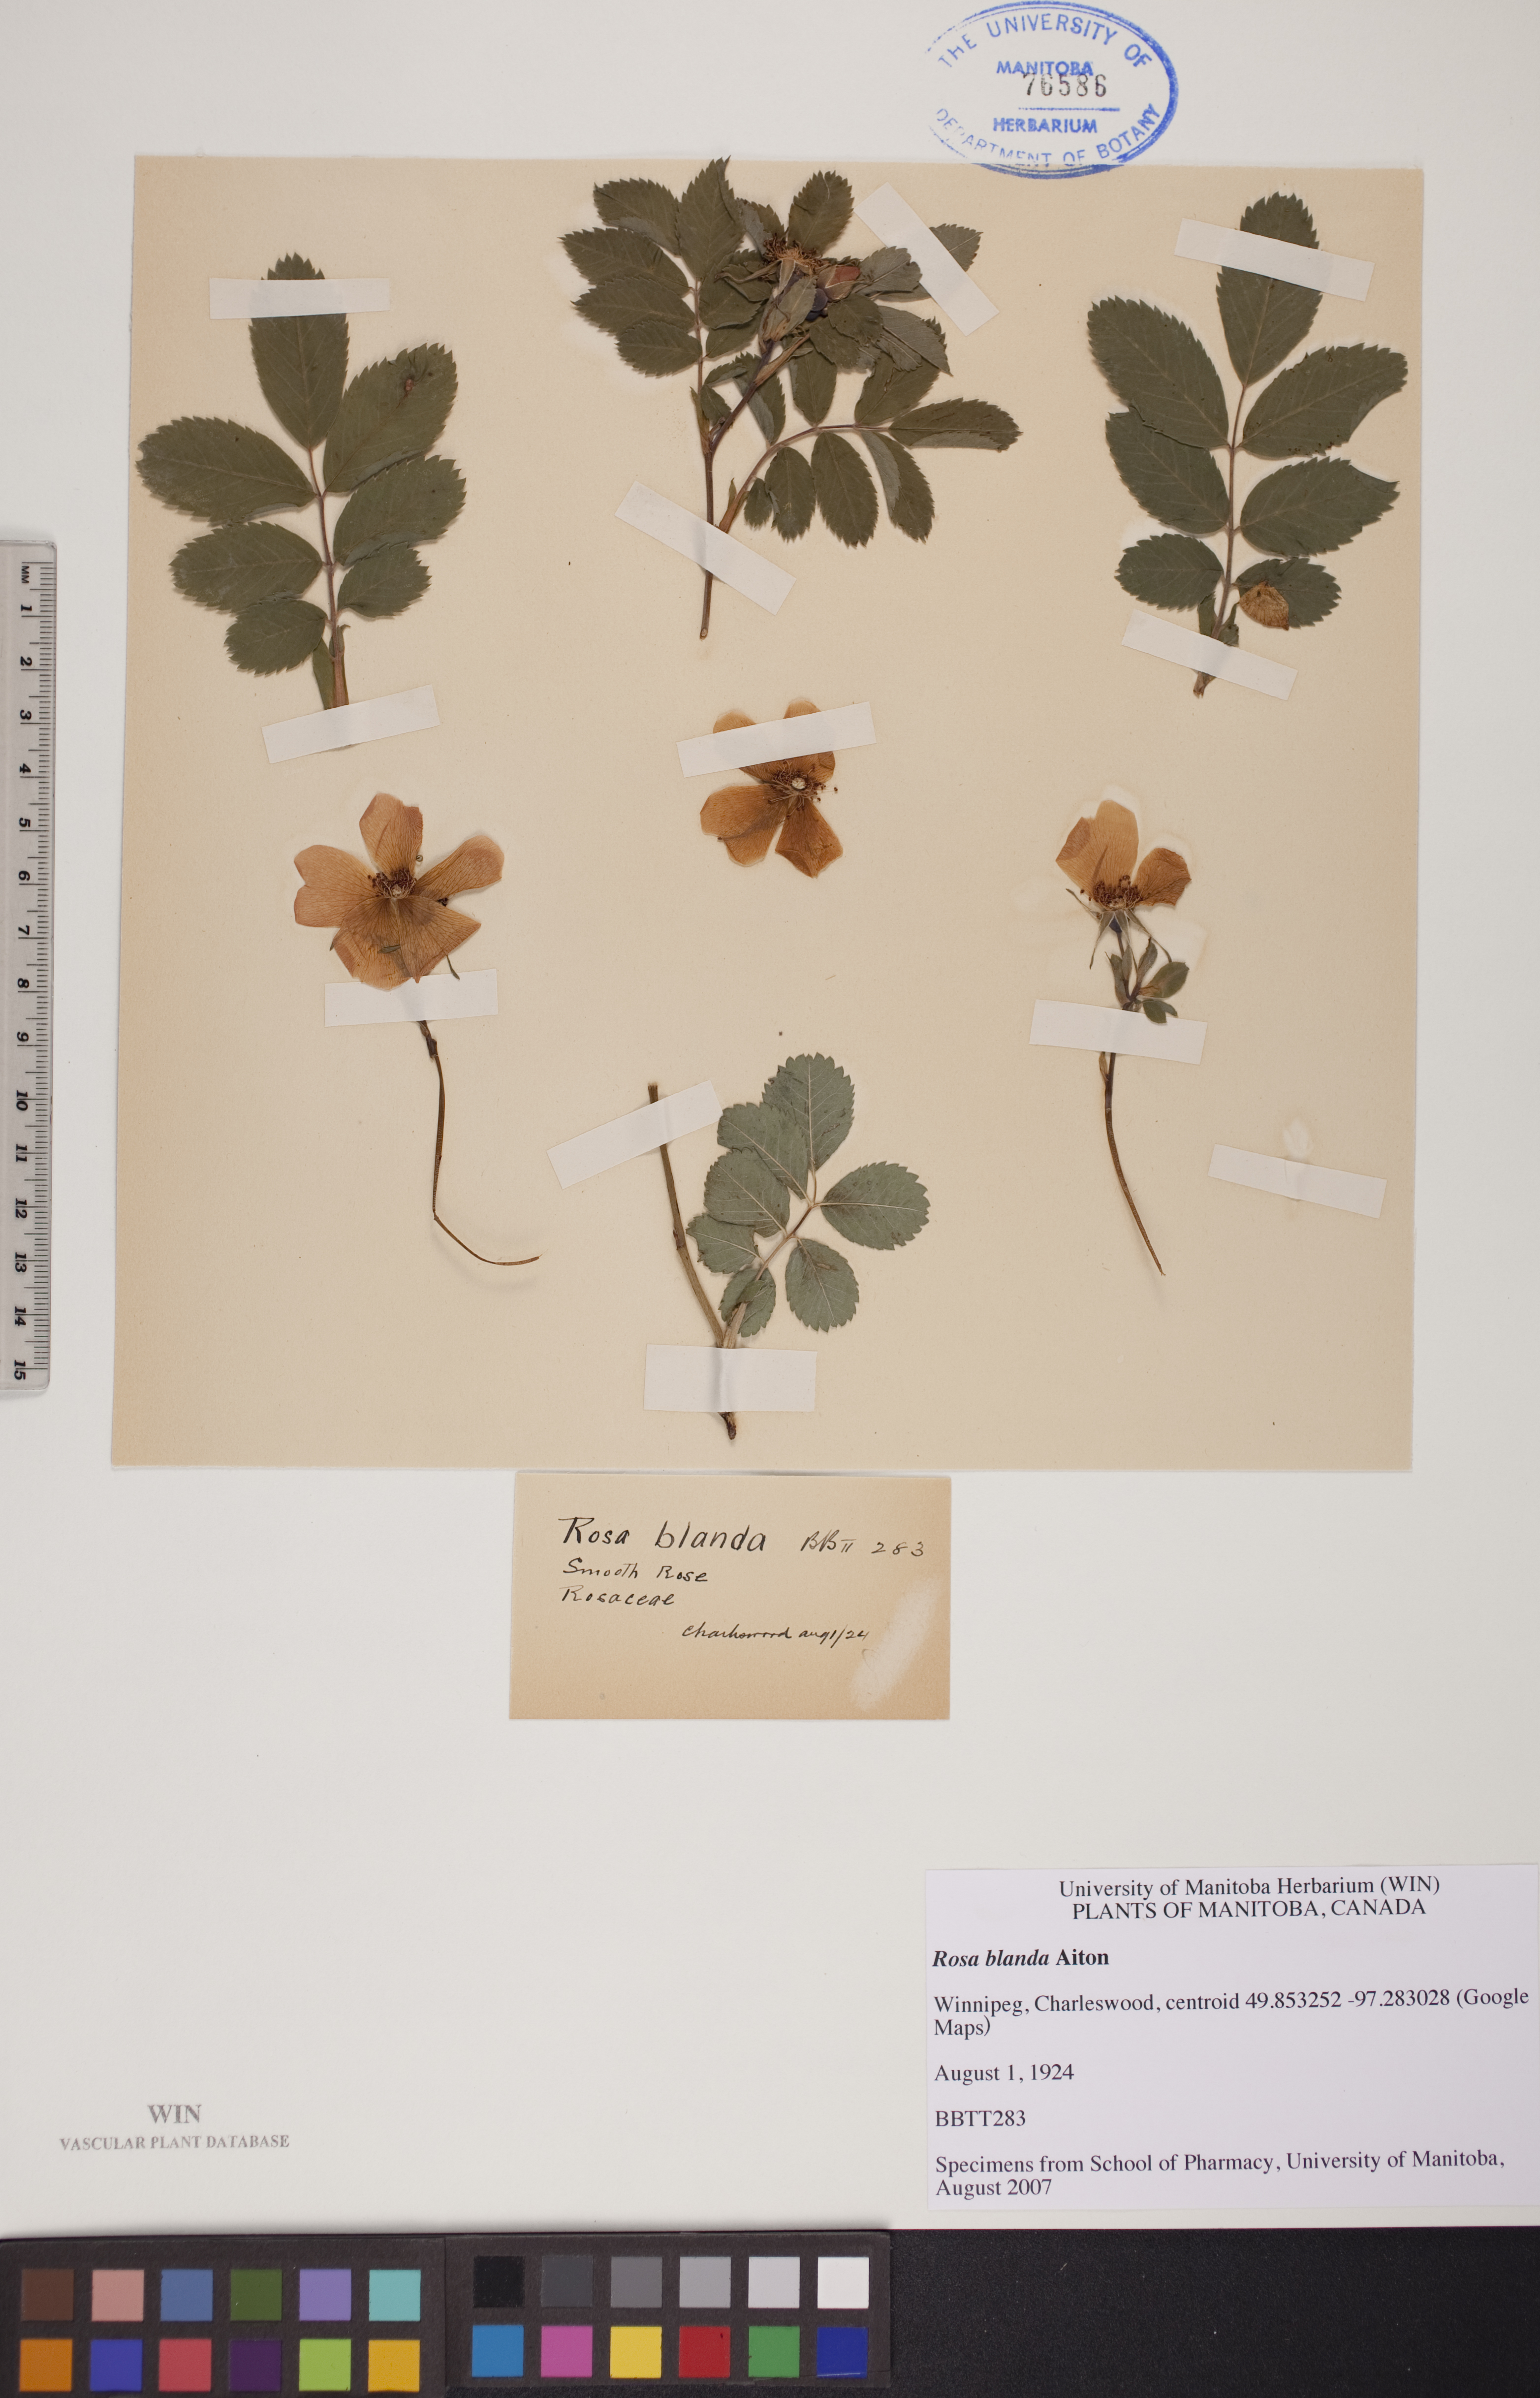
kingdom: Plantae
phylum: Tracheophyta
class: Magnoliopsida
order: Rosales
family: Rosaceae
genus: Rosa
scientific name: Rosa blanda
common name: Smooth rose
